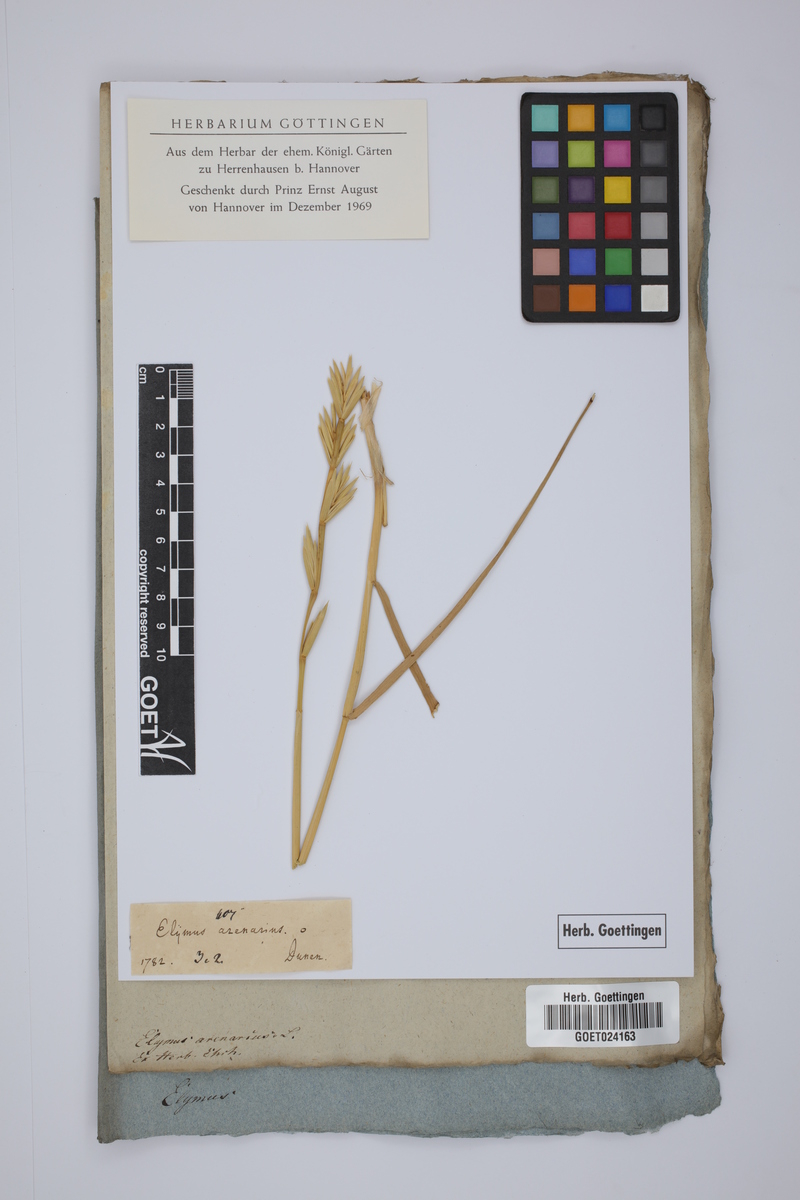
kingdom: Plantae
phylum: Tracheophyta
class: Liliopsida
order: Poales
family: Poaceae
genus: Leymus
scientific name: Leymus arenarius
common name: Lyme-grass
